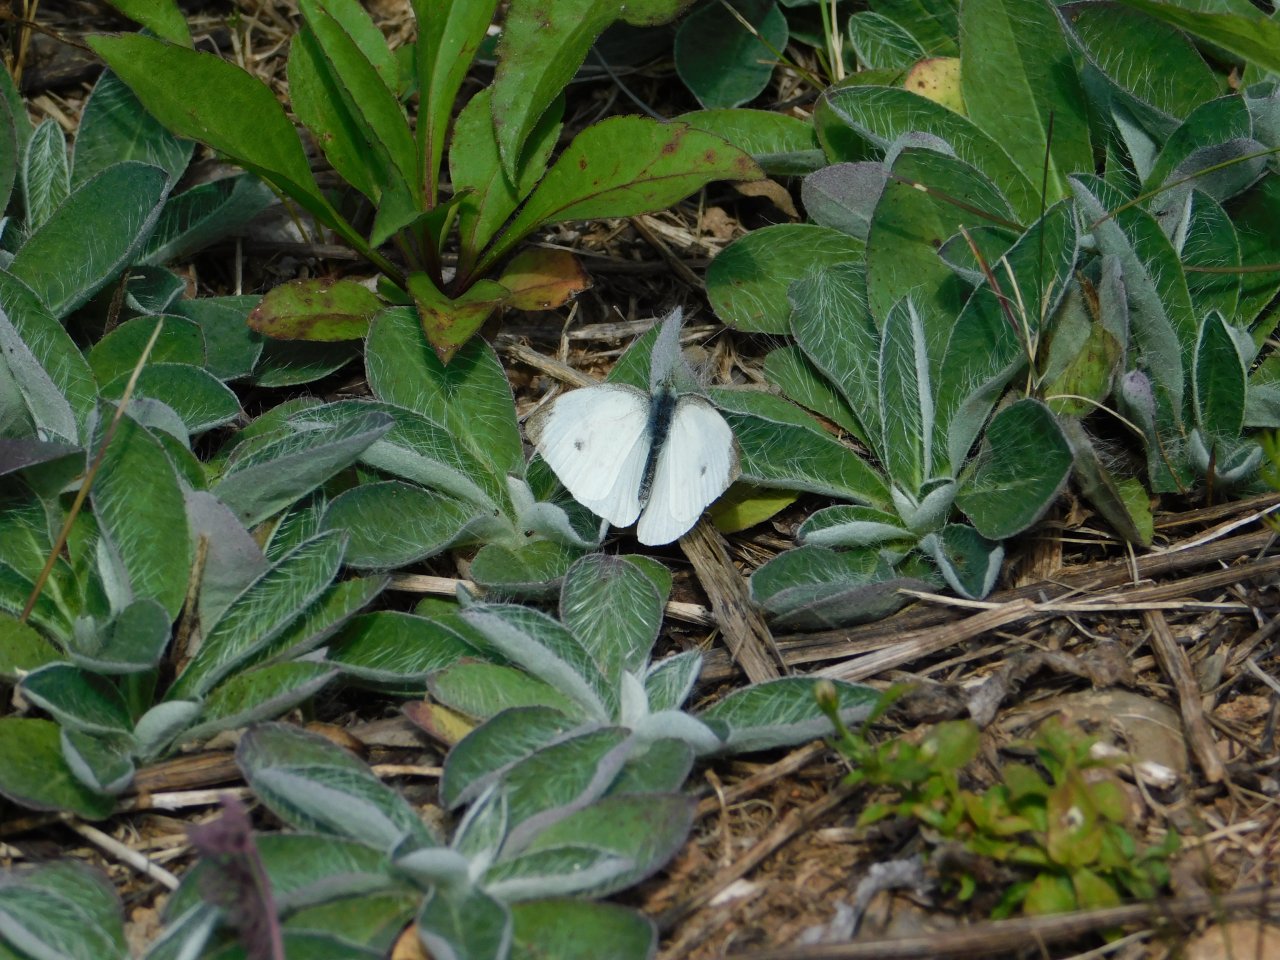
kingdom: Animalia
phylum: Arthropoda
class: Insecta
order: Lepidoptera
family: Pieridae
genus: Pieris
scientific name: Pieris rapae
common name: Cabbage White
